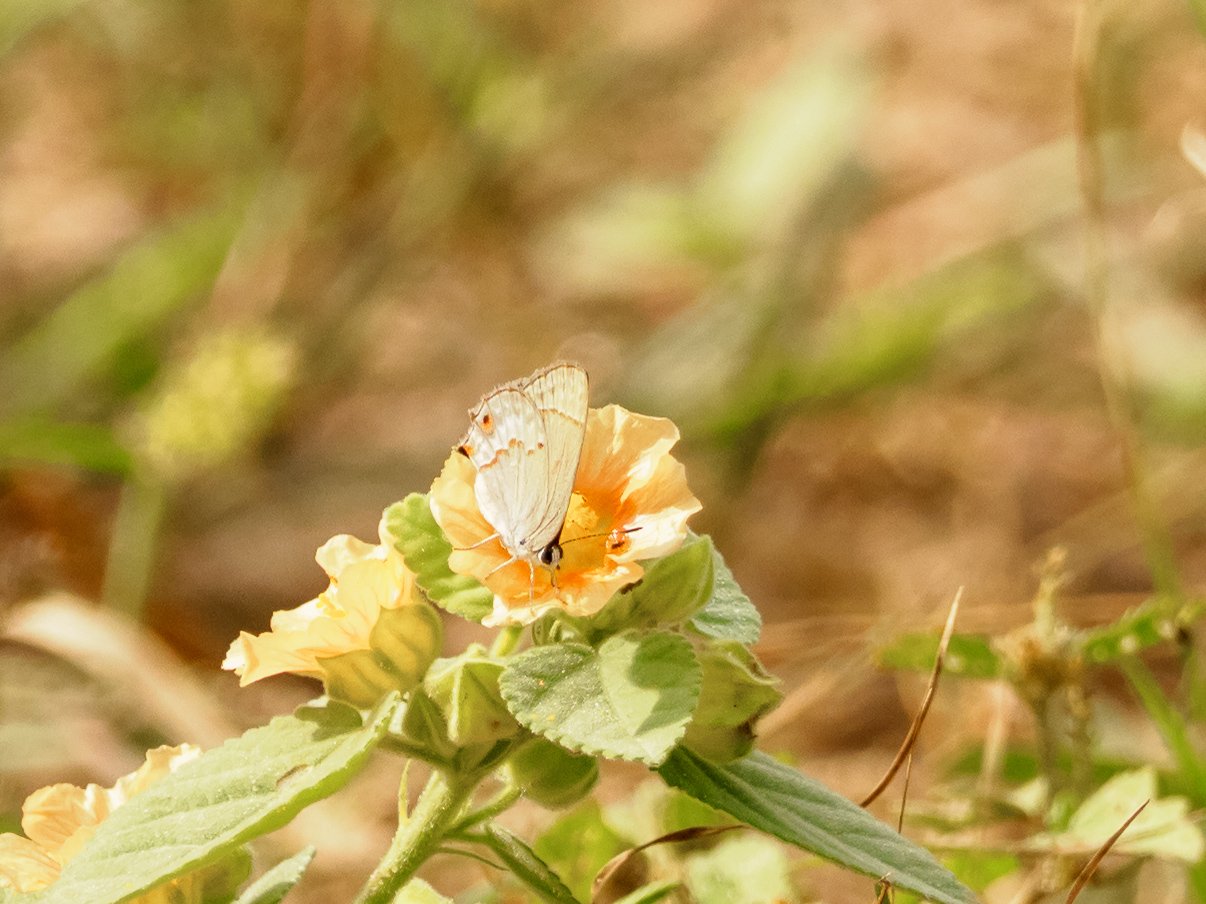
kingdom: Animalia
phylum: Arthropoda
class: Insecta
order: Lepidoptera
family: Lycaenidae
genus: Thecla
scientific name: Thecla rufofusca
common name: Red-crescent Scrub-Hairstreak
